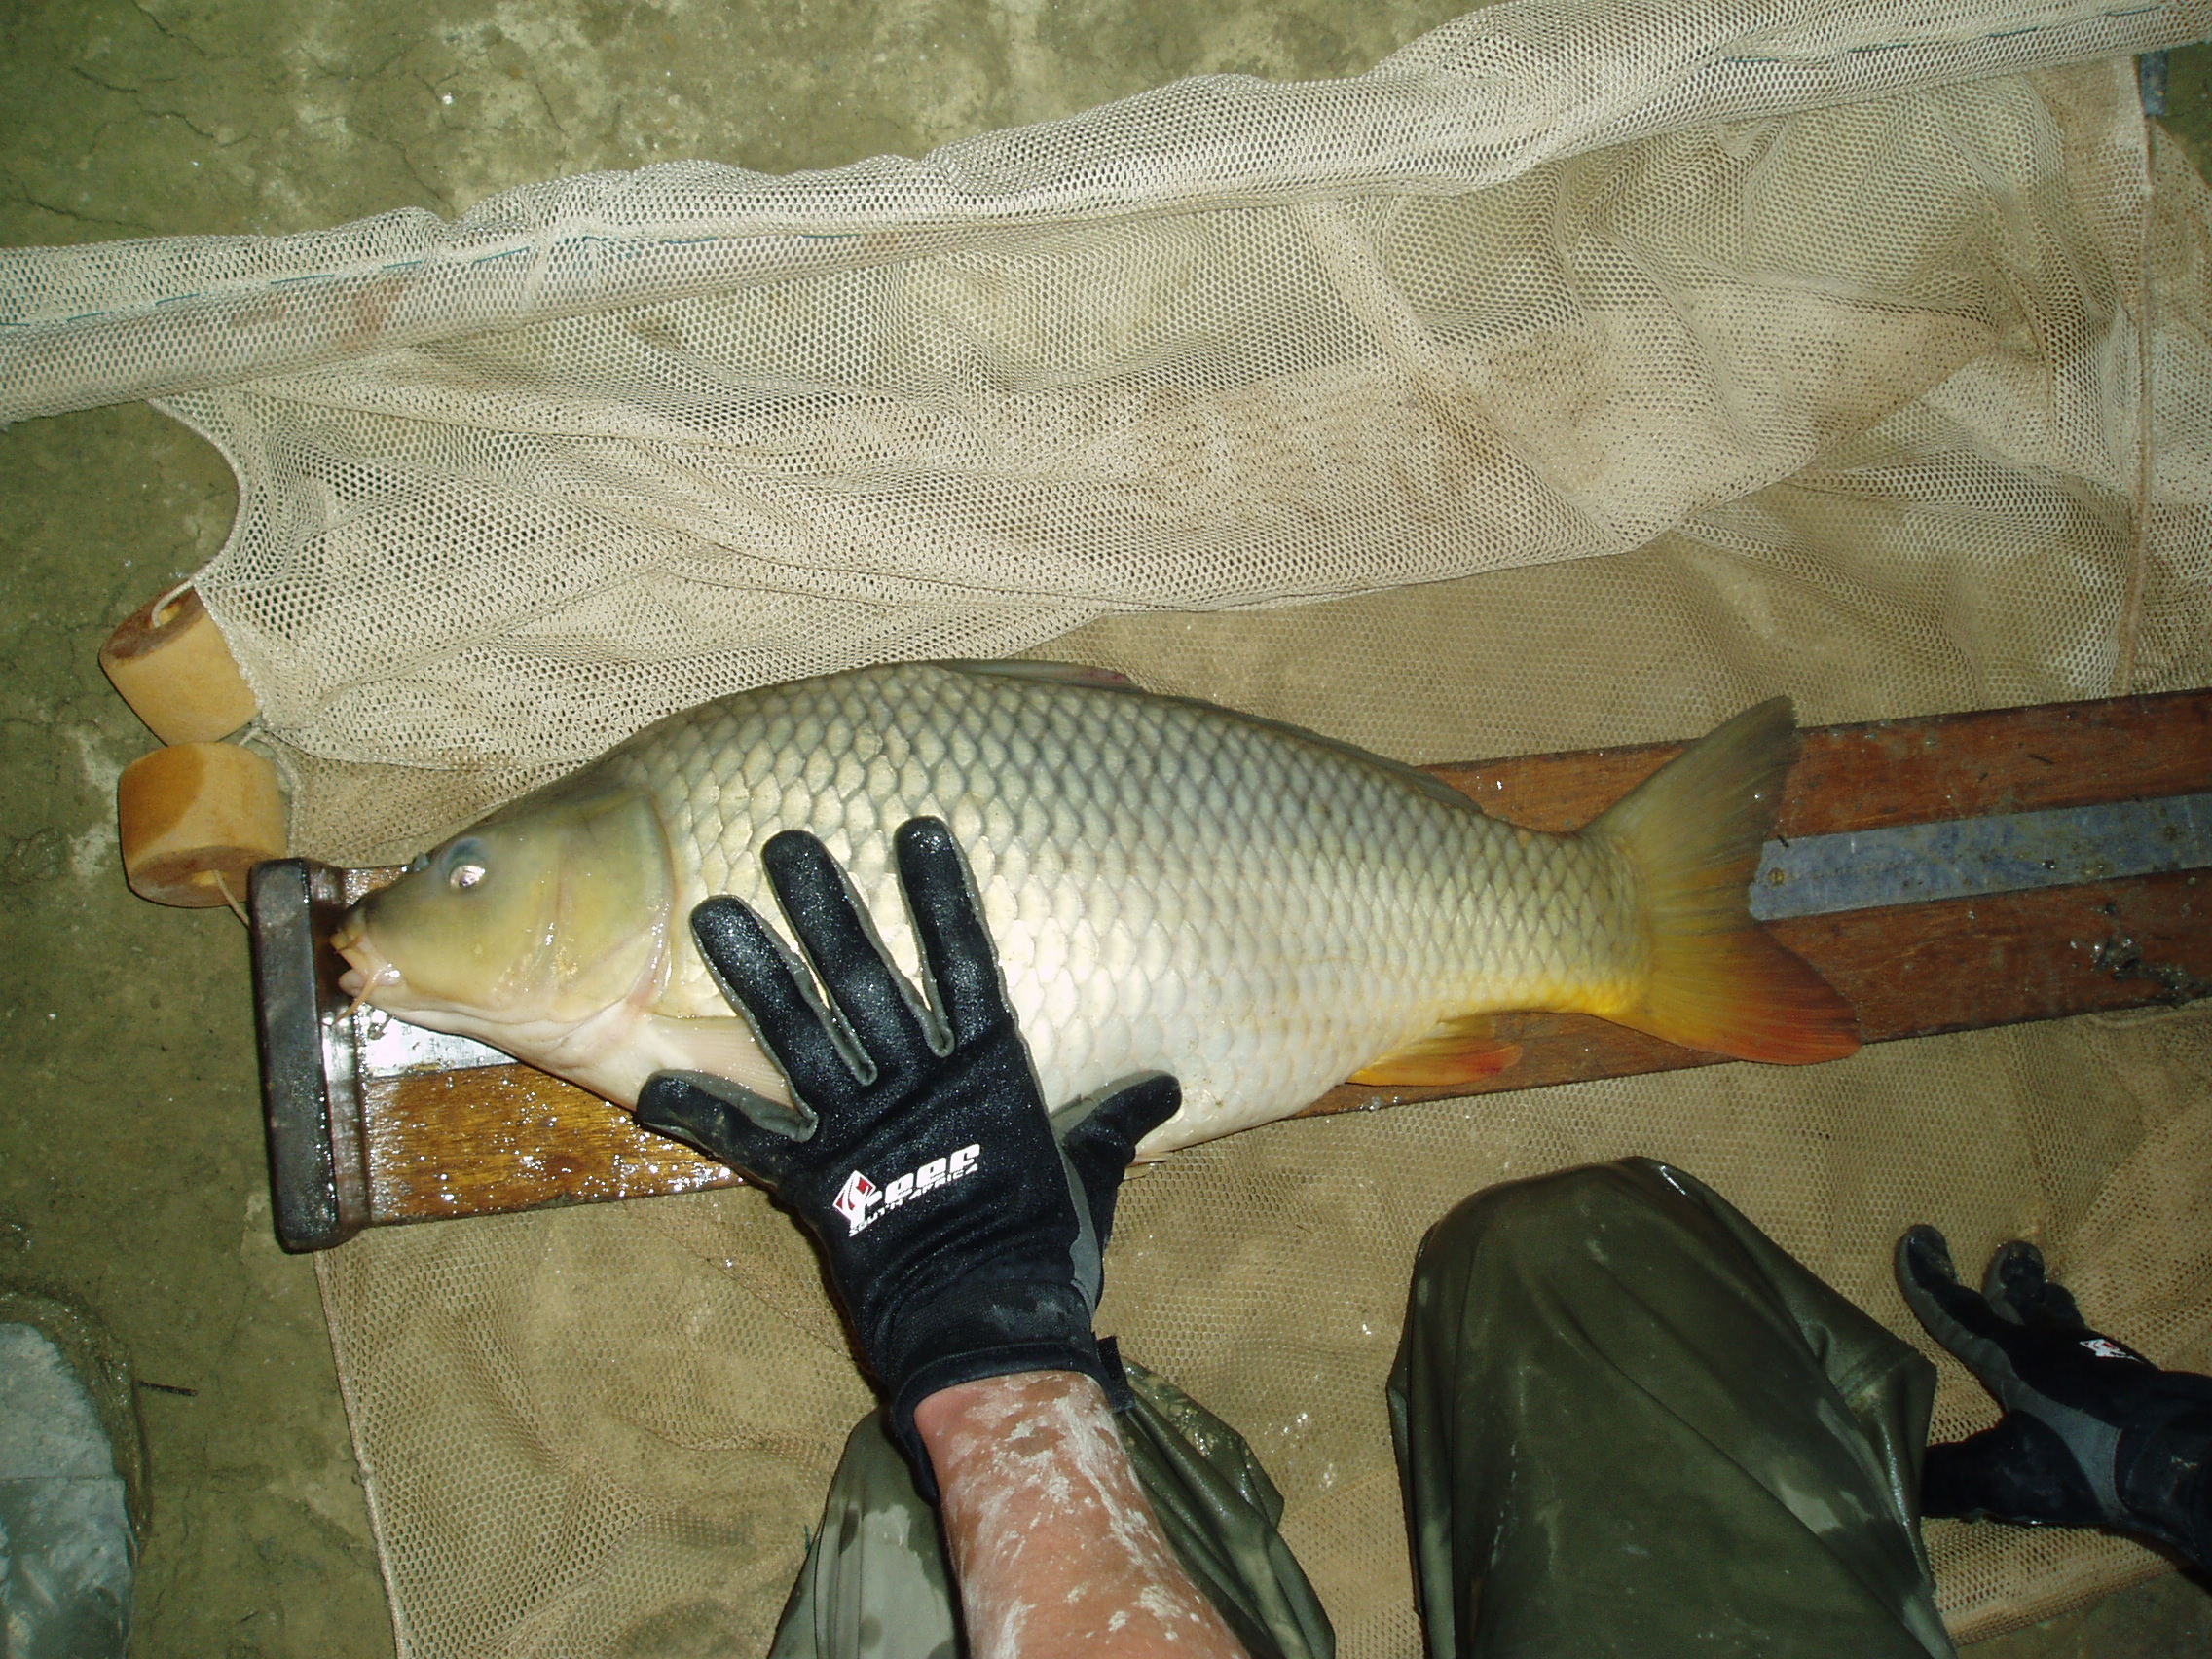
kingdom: Animalia
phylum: Chordata
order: Cypriniformes
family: Cyprinidae
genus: Cyprinus
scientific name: Cyprinus carpio
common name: Common carp
